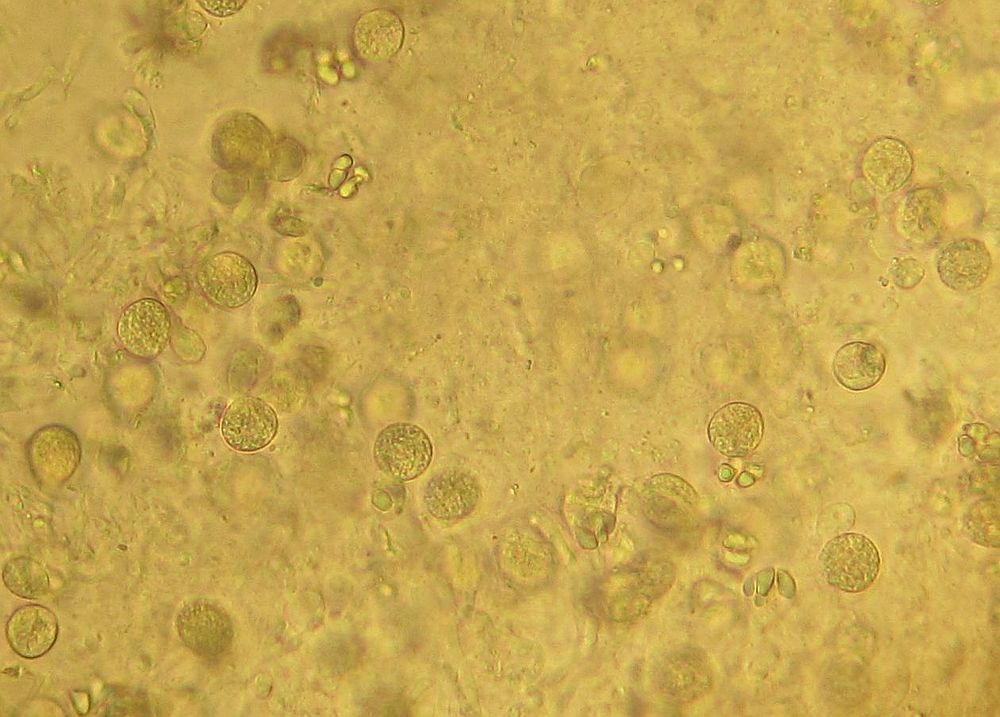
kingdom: Fungi
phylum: Basidiomycota
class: Agaricomycetes
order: Sebacinales
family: Sebacinaceae
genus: Sebacina
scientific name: Sebacina grisea
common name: blågrå bævrehinde
